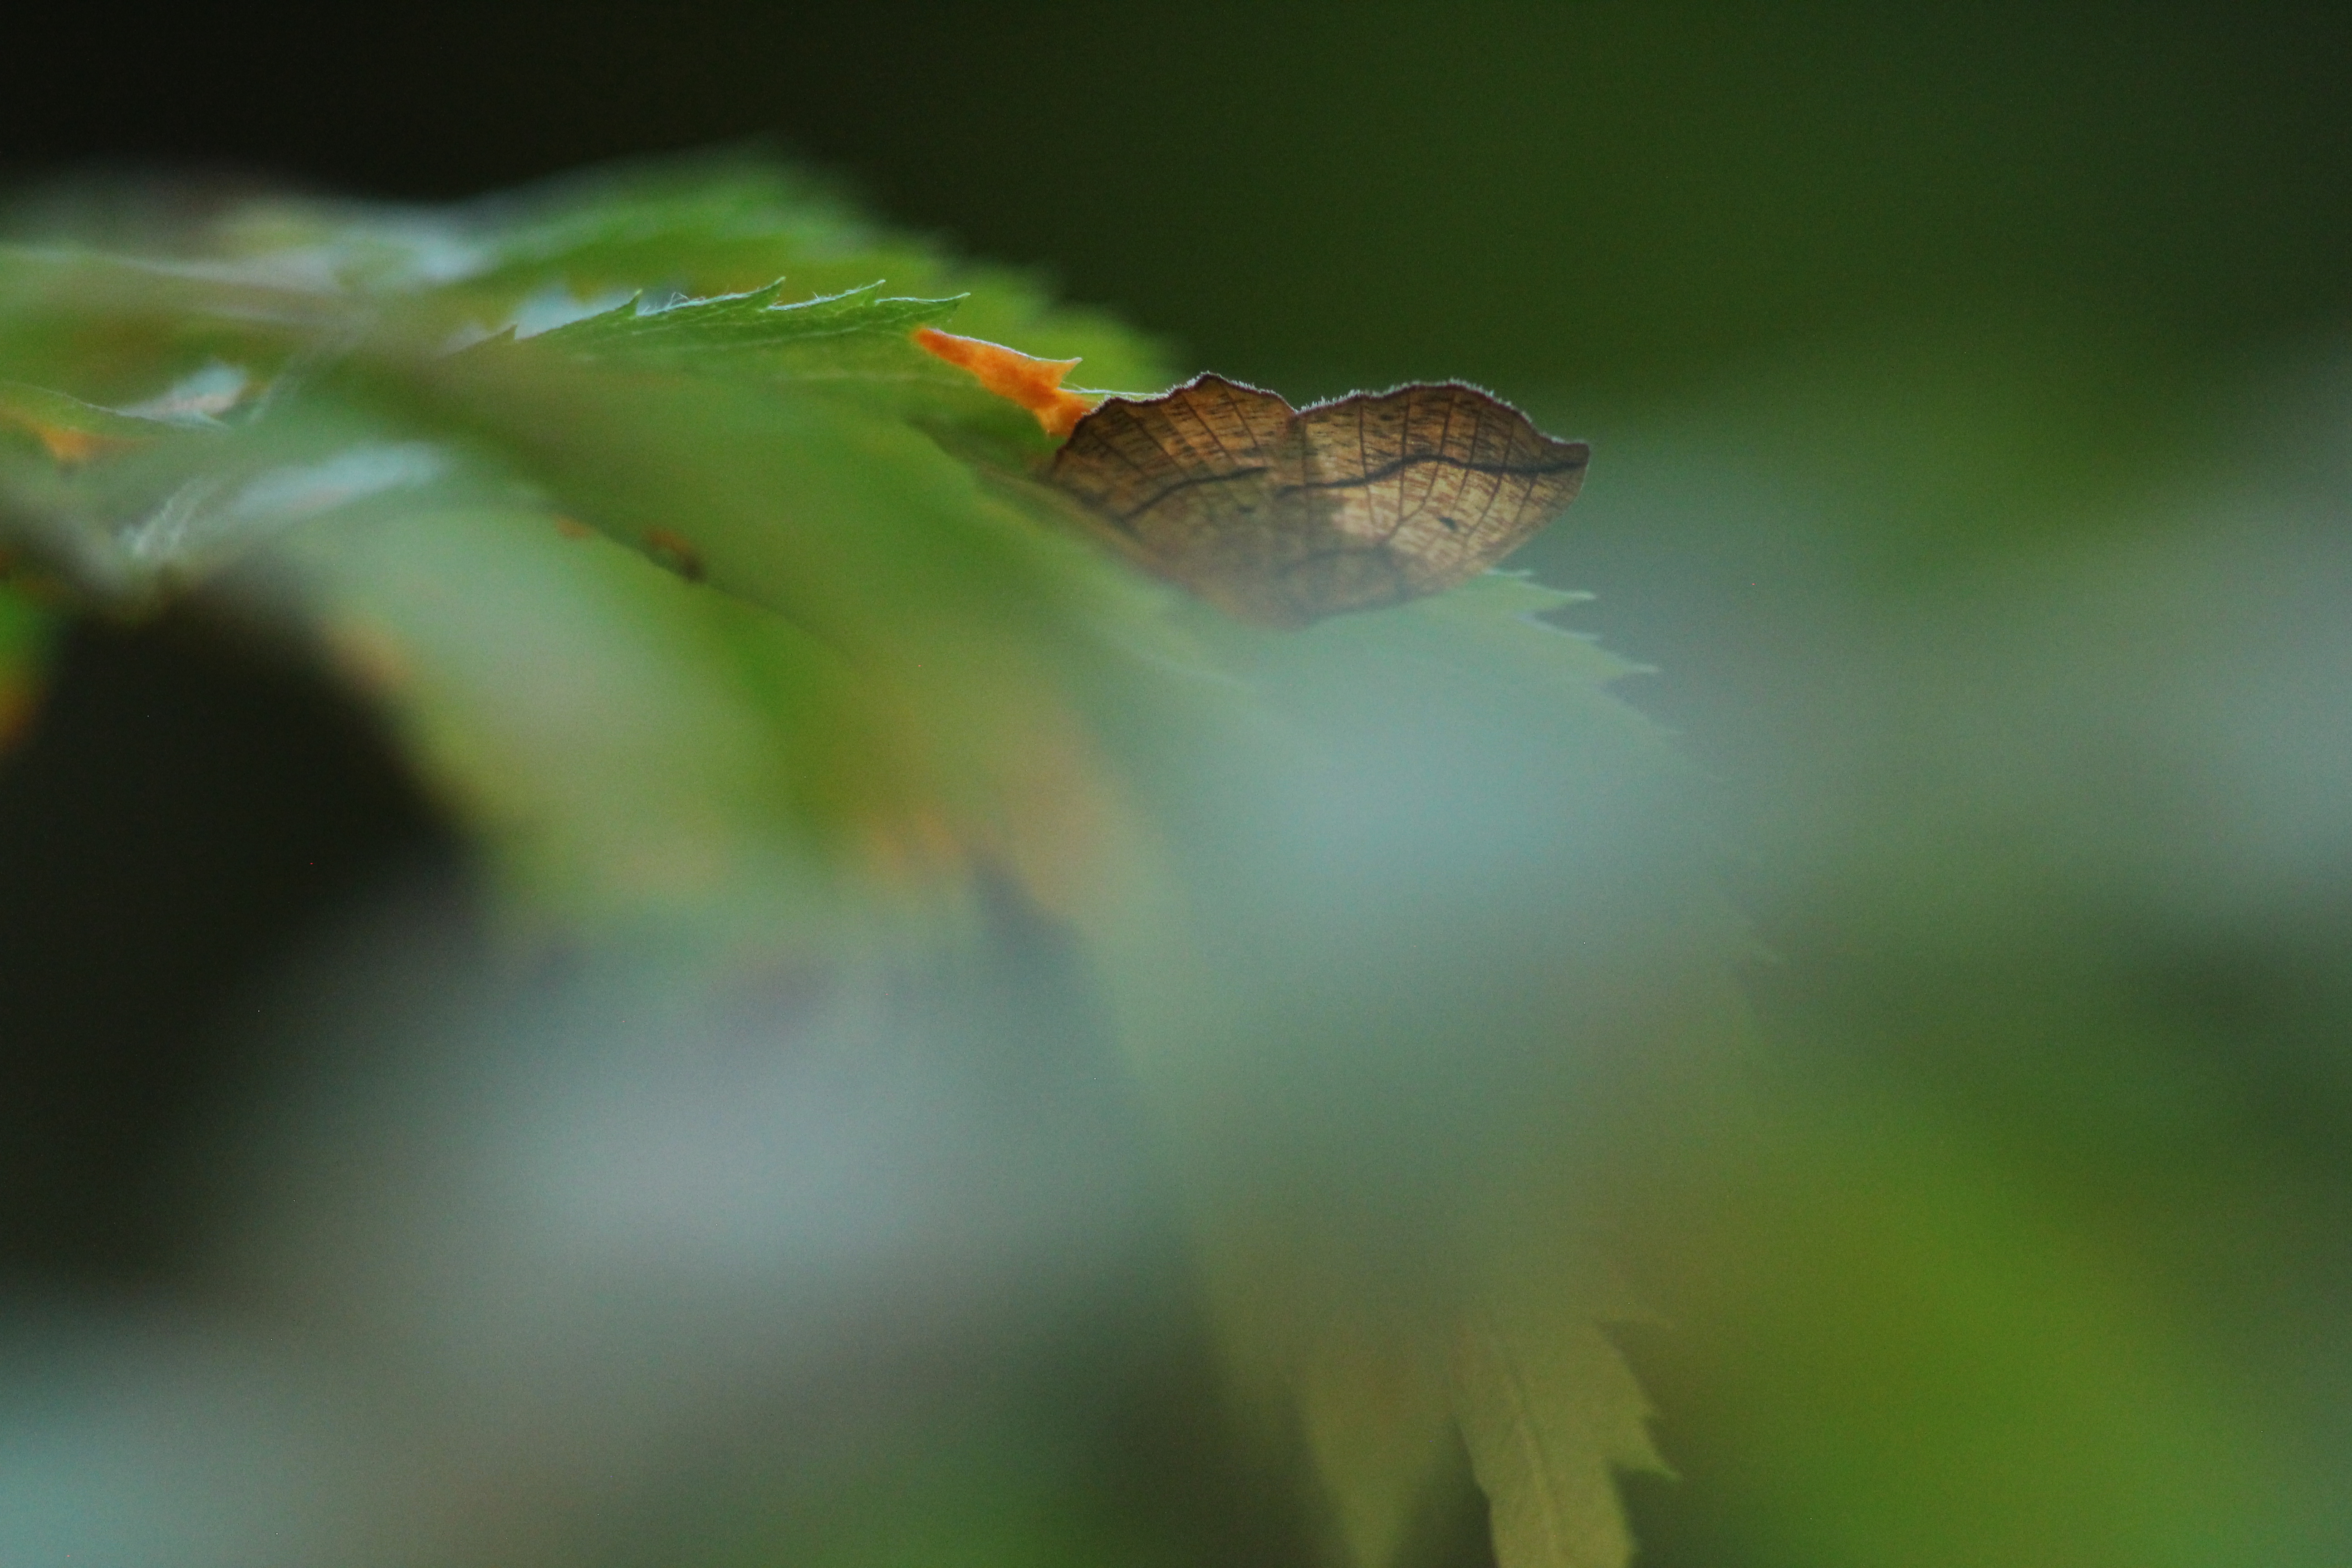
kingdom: Animalia
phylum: Arthropoda
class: Insecta
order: Lepidoptera
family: Geometridae
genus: Epione
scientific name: Epione repandaria
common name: Bordered beauty
